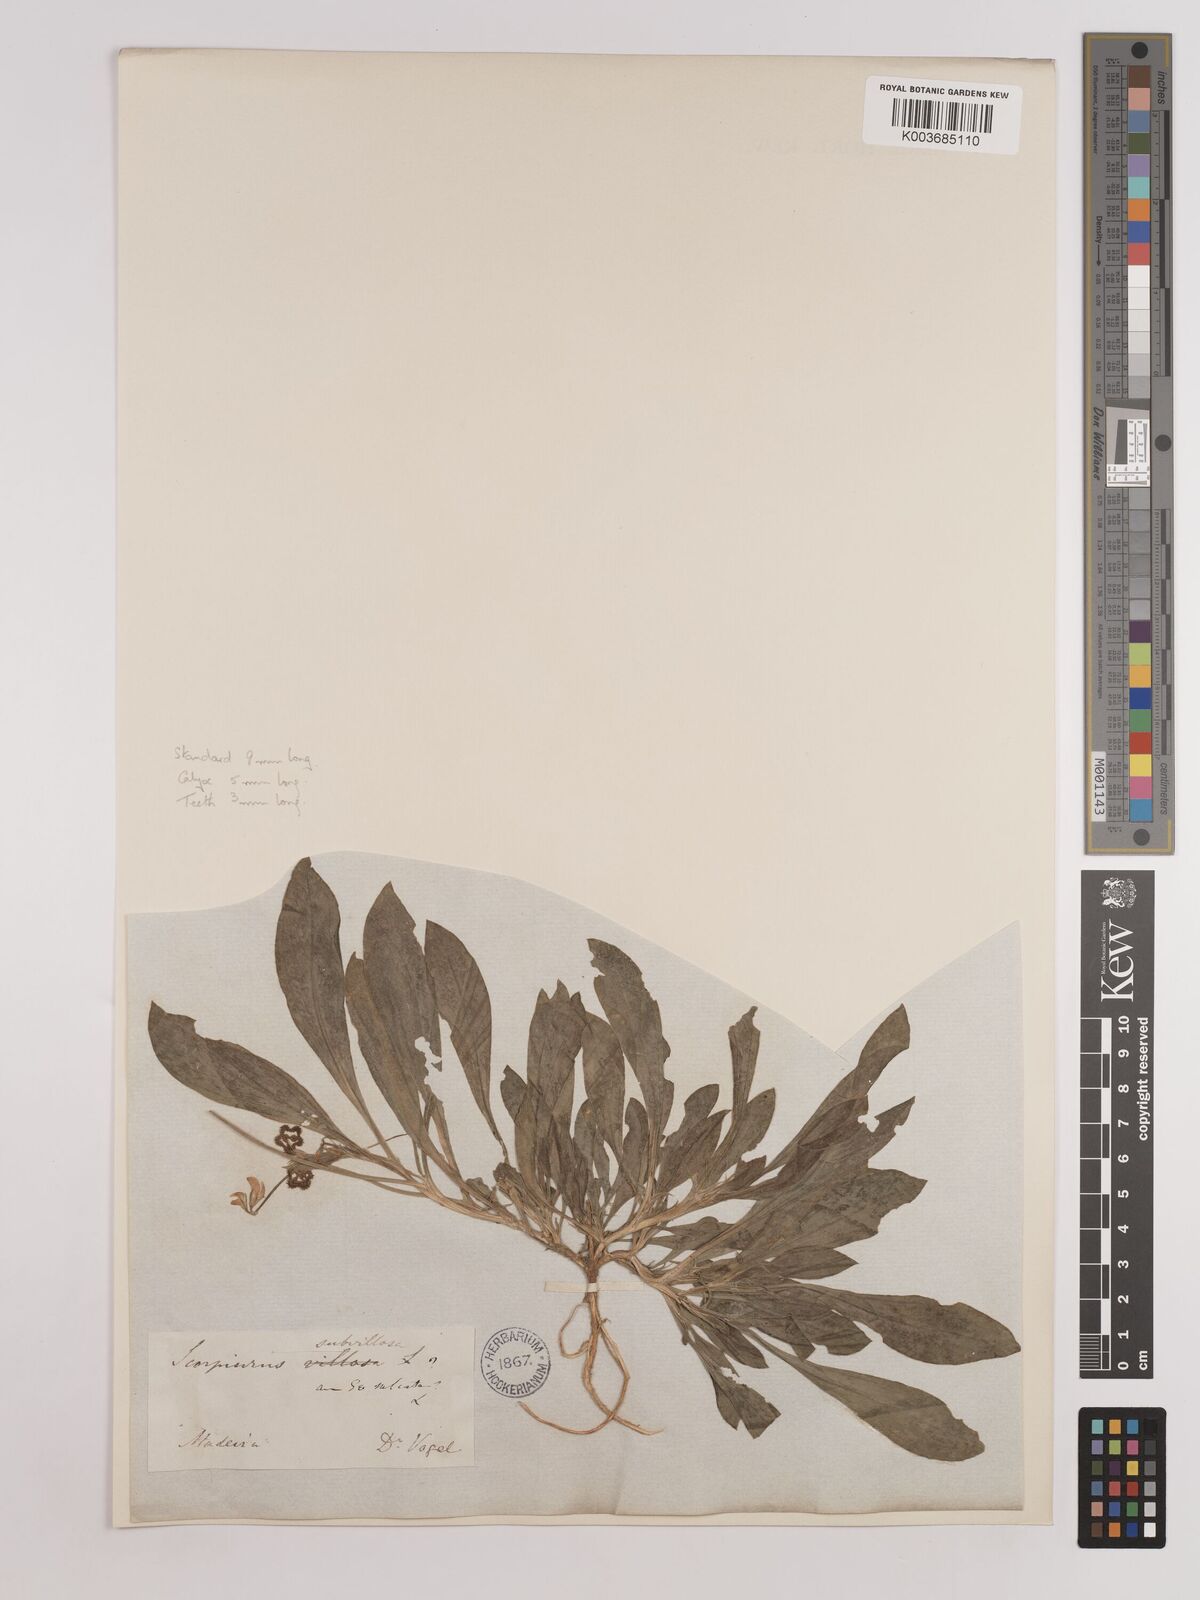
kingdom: Plantae
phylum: Tracheophyta
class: Magnoliopsida
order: Fabales
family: Fabaceae
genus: Scorpiurus
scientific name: Scorpiurus muricatus
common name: Caterpillar-plant
